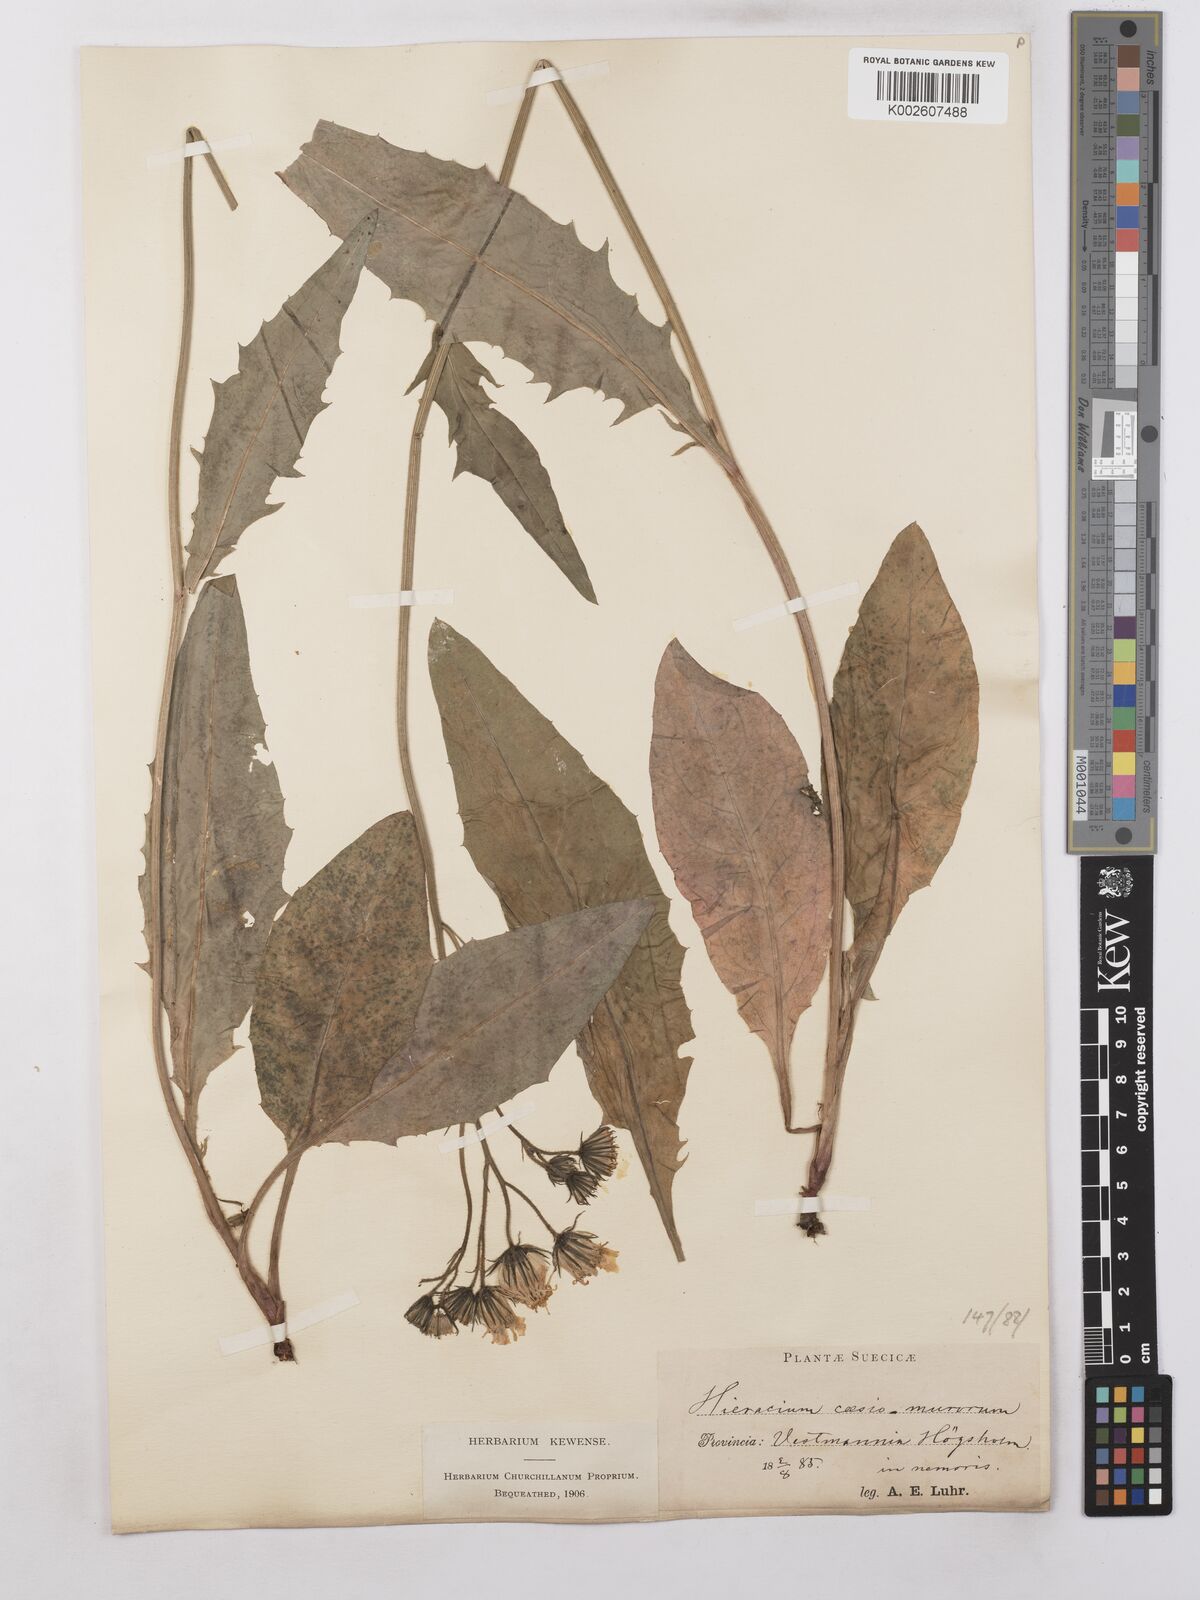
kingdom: Plantae
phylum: Tracheophyta
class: Magnoliopsida
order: Asterales
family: Asteraceae
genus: Hieracium
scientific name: Hieracium caesium
